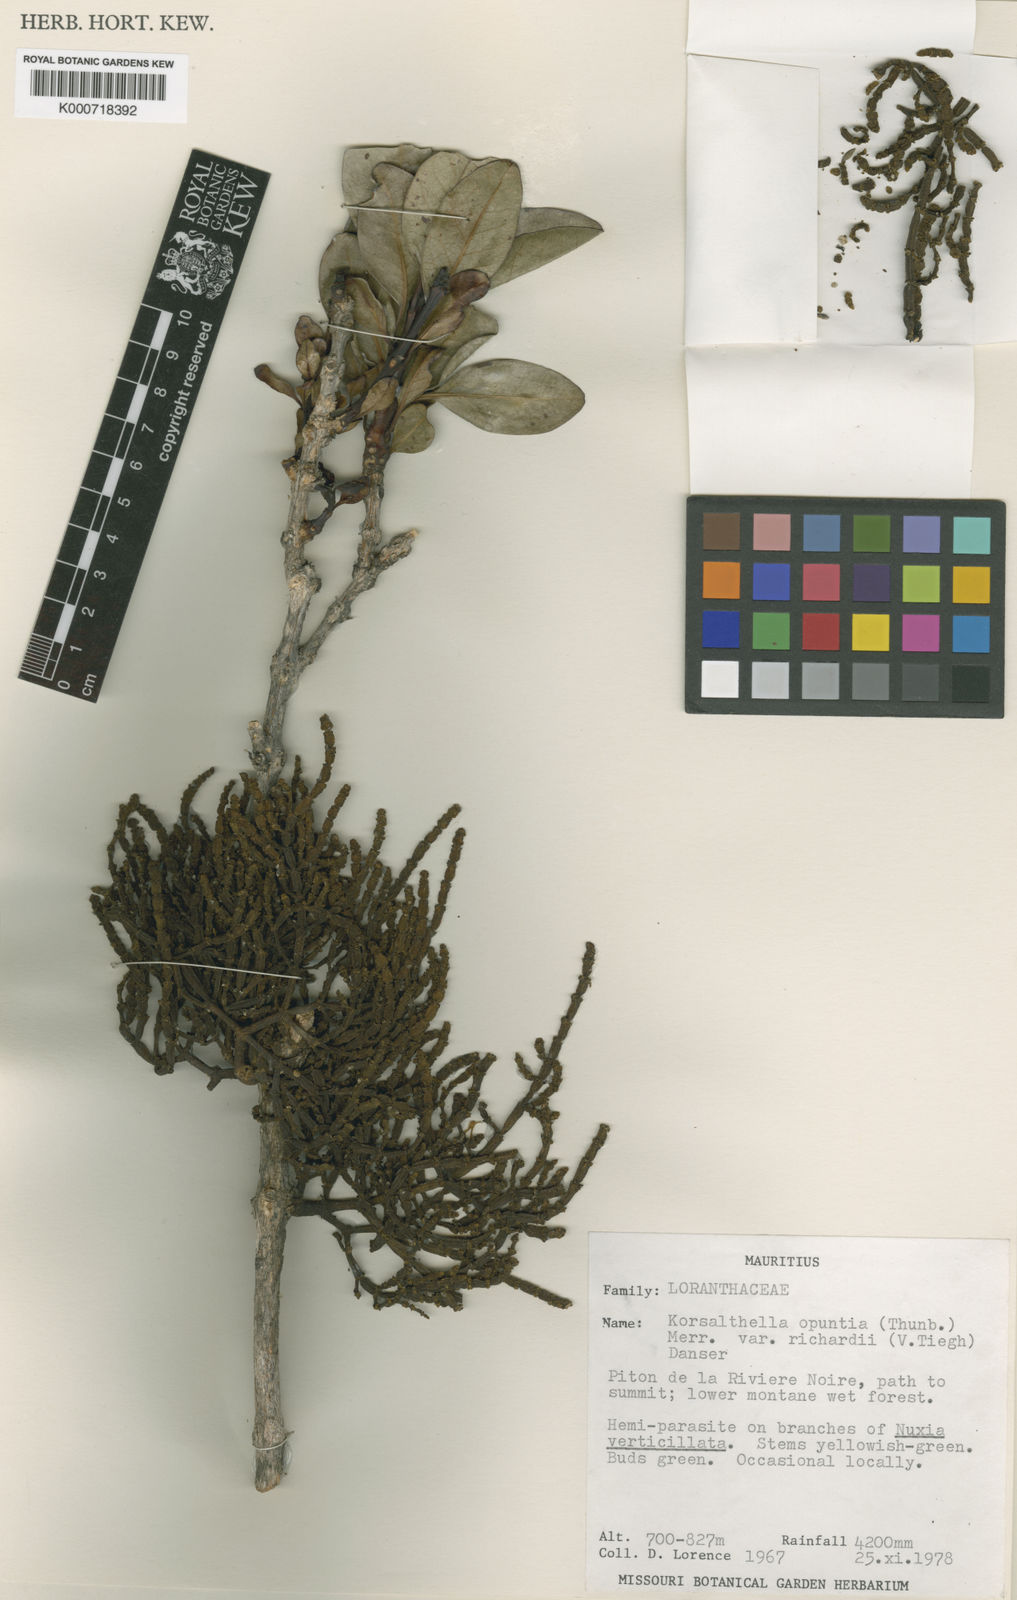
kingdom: Plantae
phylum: Tracheophyta
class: Magnoliopsida
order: Santalales
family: Viscaceae
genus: Korthalsella
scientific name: Korthalsella
